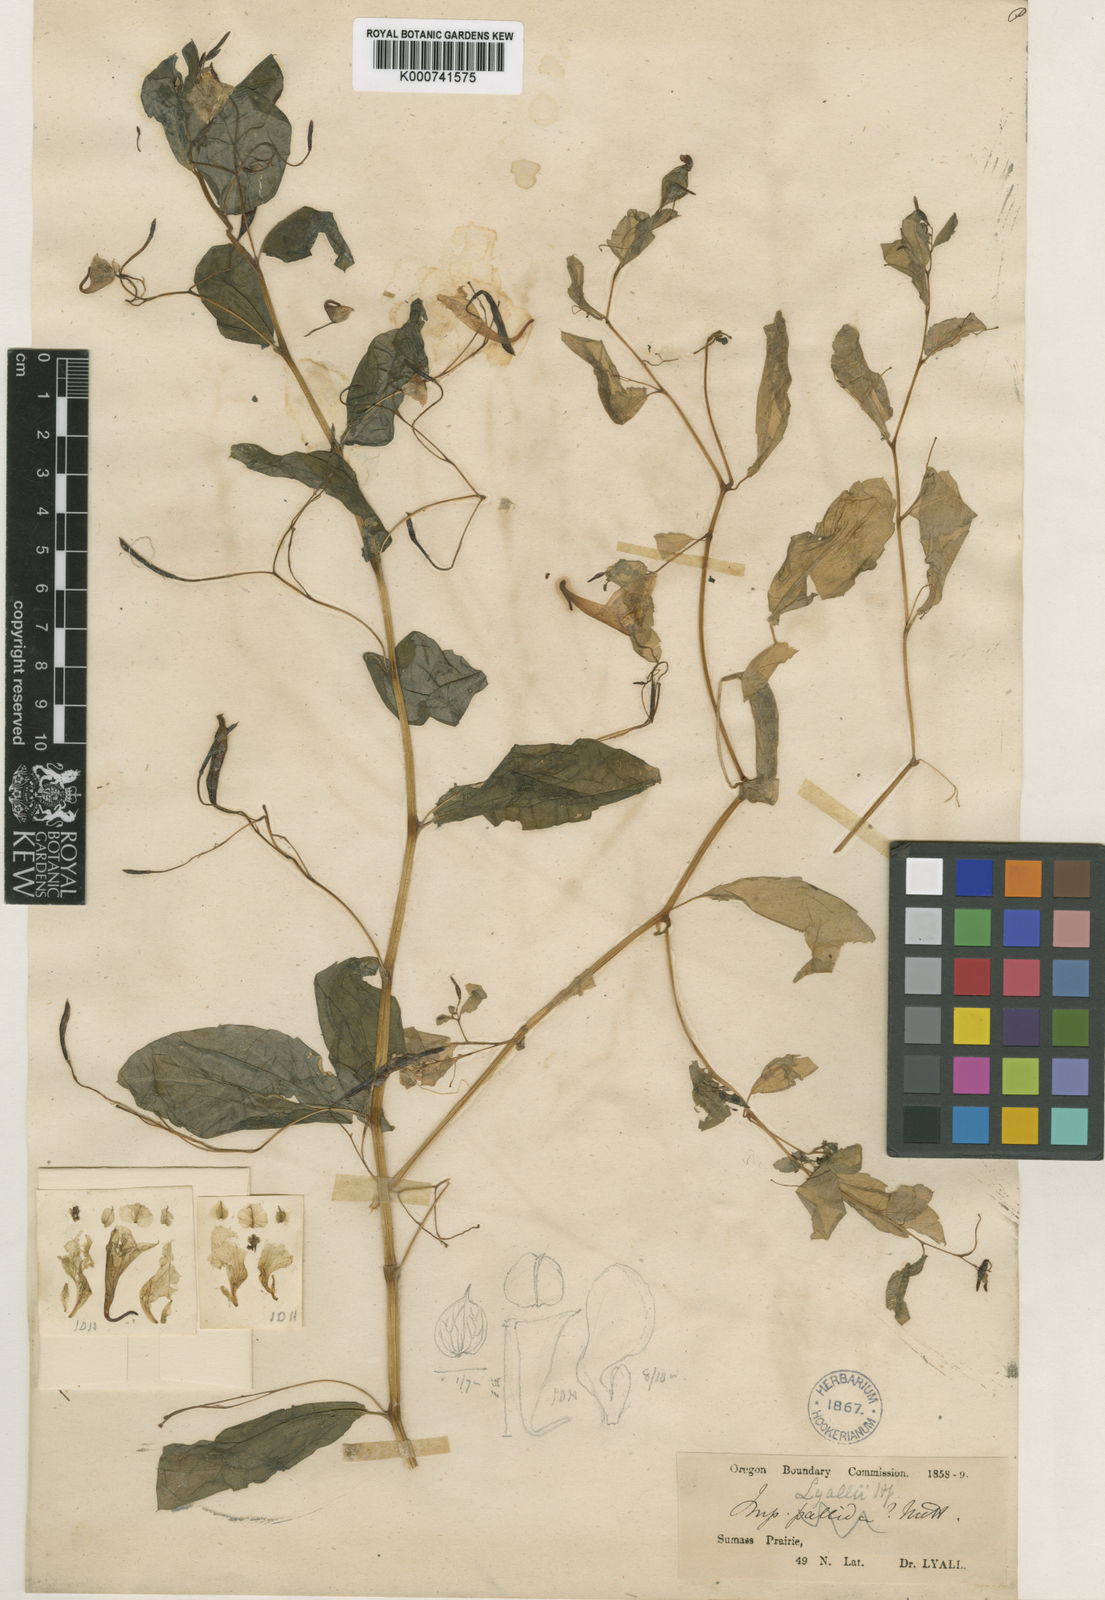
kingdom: Plantae
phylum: Tracheophyta
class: Magnoliopsida
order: Ericales
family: Balsaminaceae
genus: Impatiens
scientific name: Impatiens lyallii
